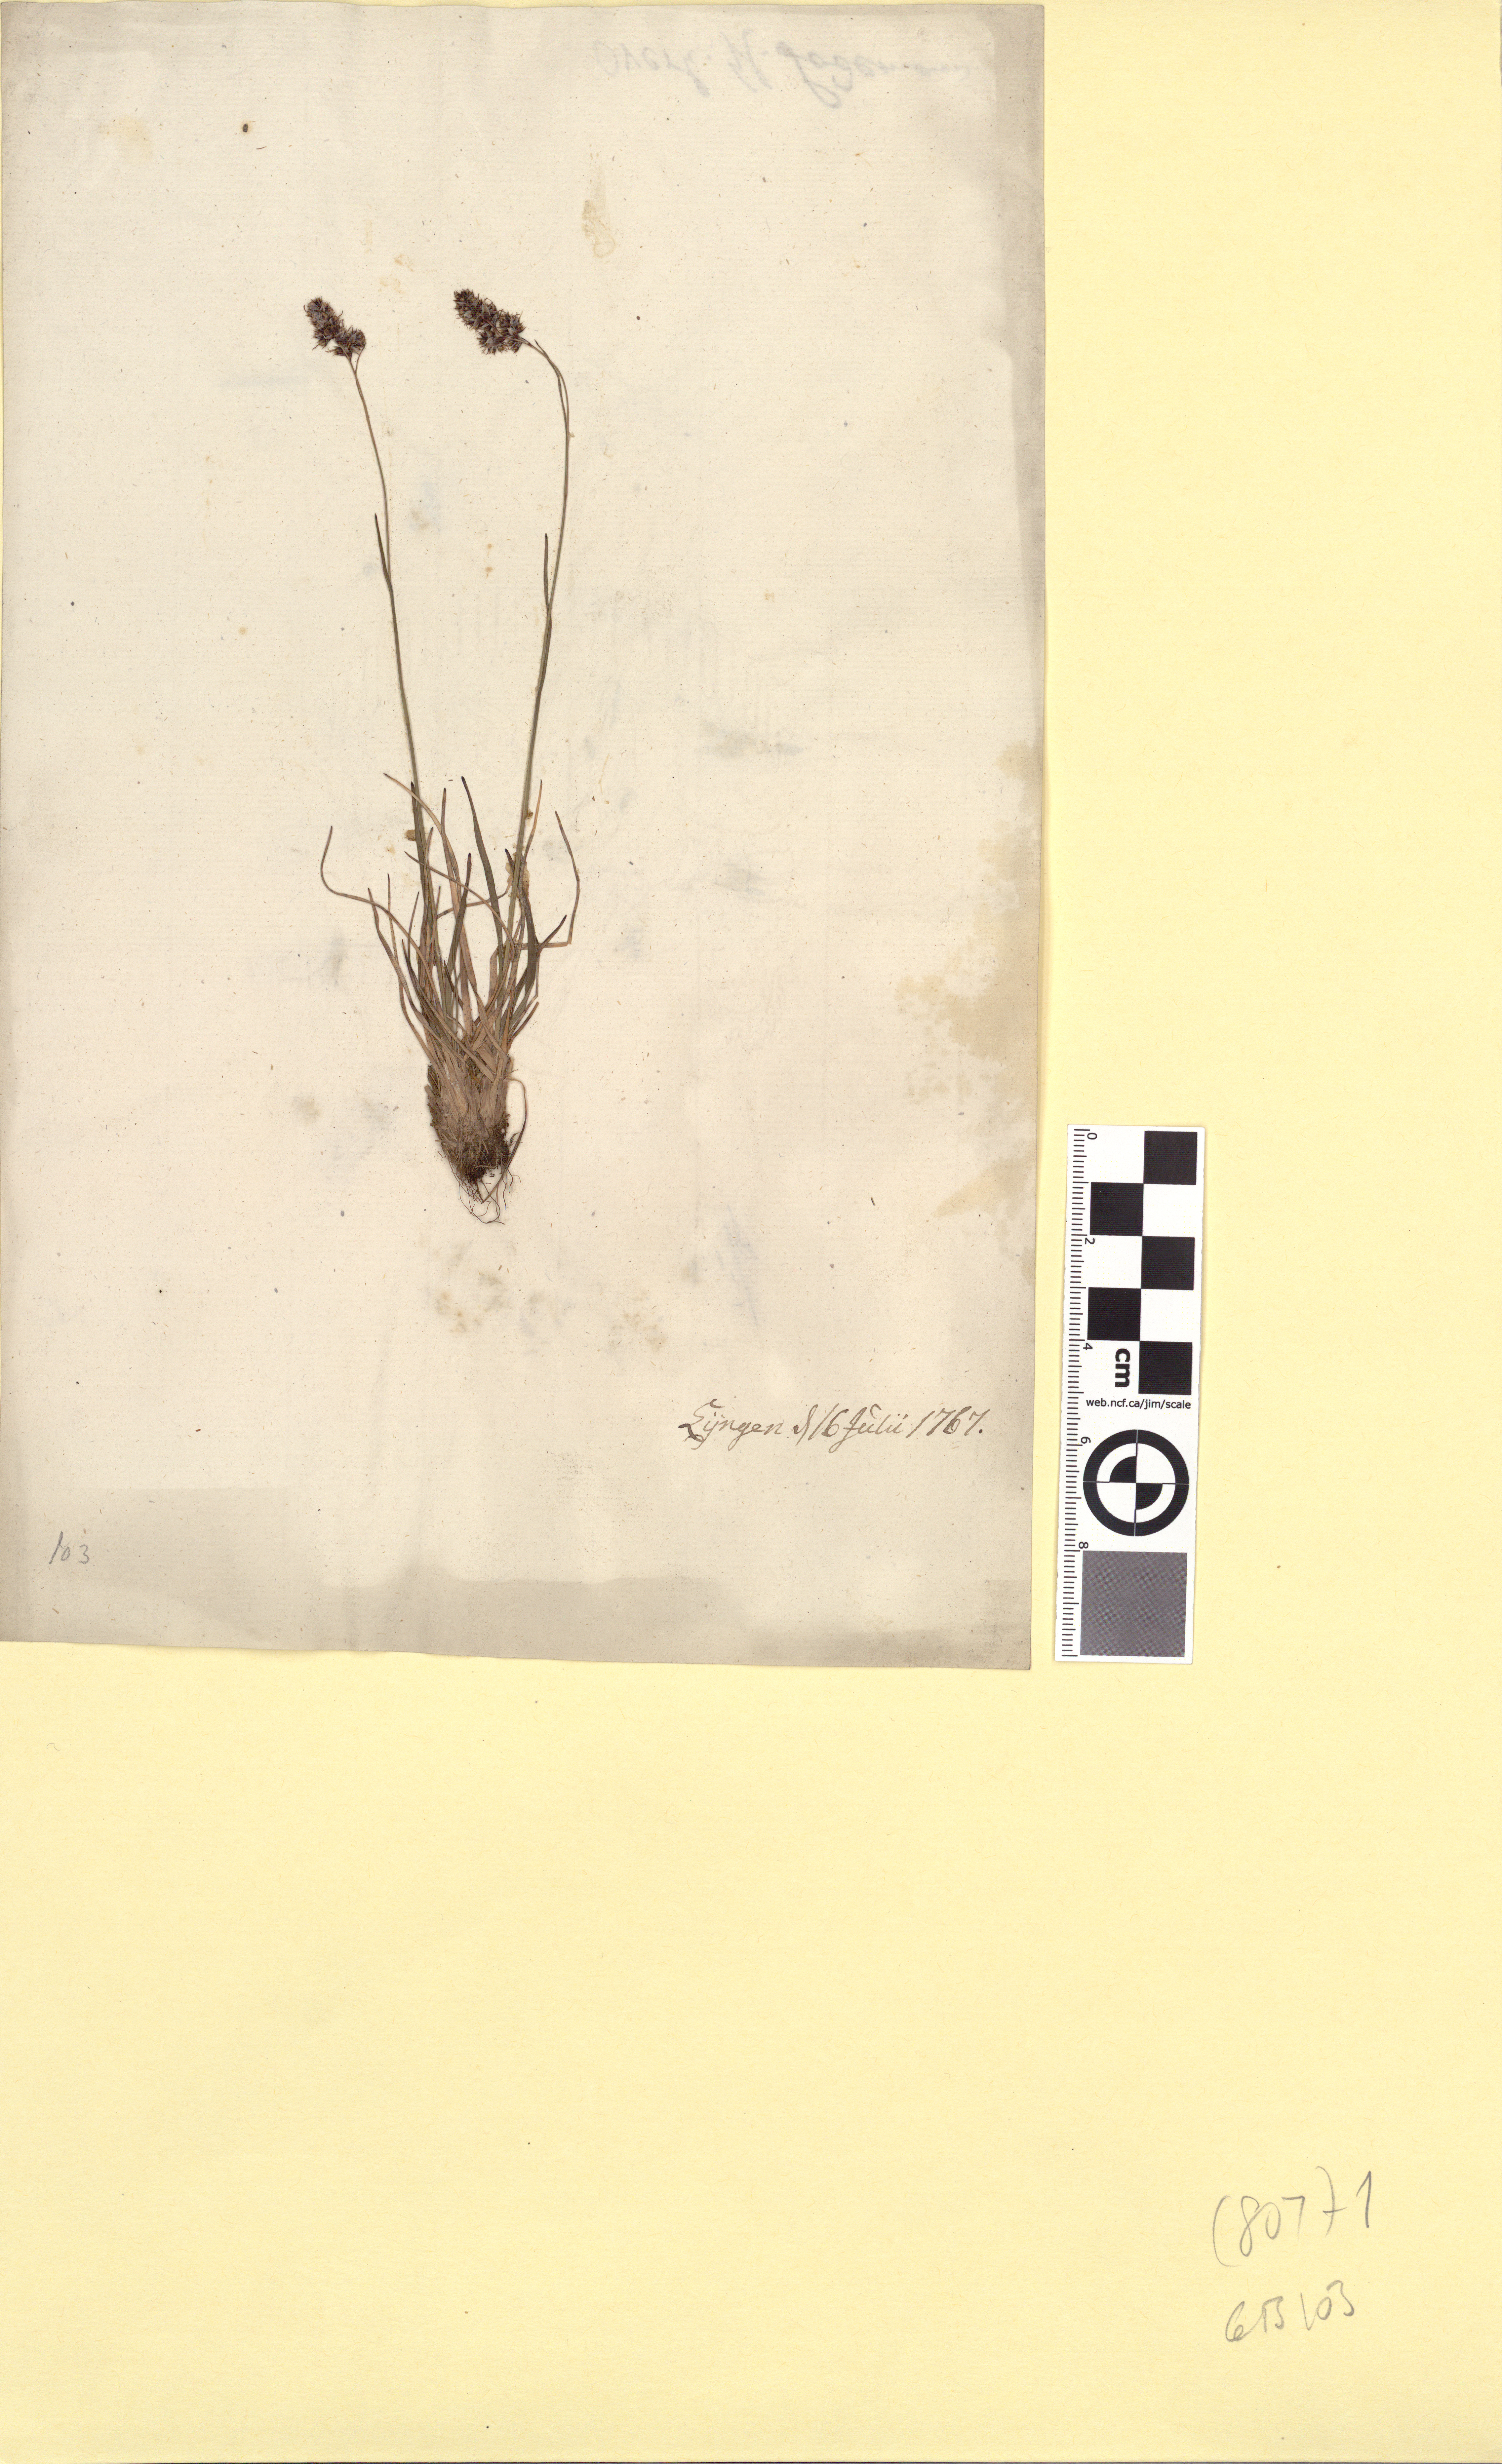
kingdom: Plantae
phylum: Tracheophyta
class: Liliopsida
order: Poales
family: Juncaceae
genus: Luzula
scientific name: Luzula spicata
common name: Spiked wood-rush
